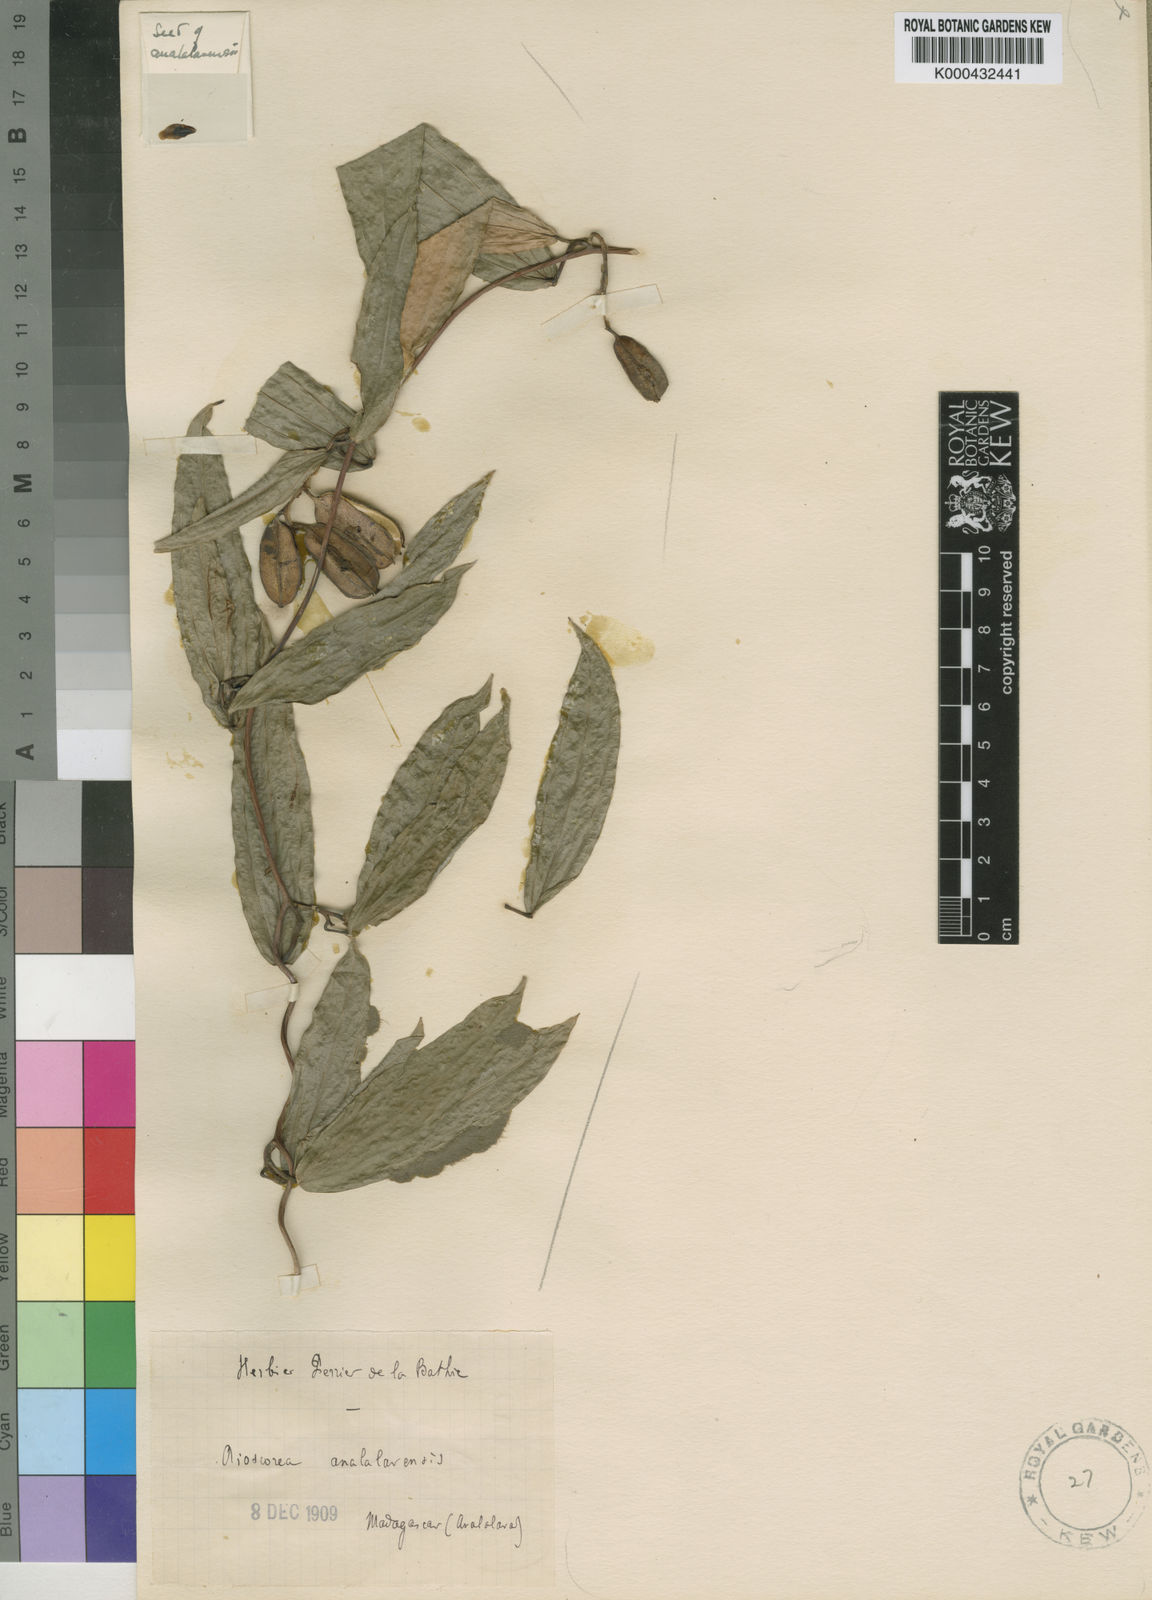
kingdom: Plantae
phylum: Tracheophyta
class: Liliopsida
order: Dioscoreales
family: Dioscoreaceae
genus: Dioscorea
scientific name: Dioscorea analalavensis
